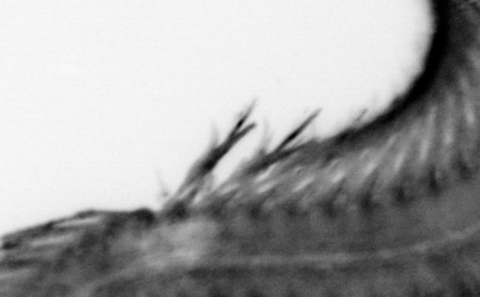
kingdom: Animalia
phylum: Annelida
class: Polychaeta
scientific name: Polychaeta
